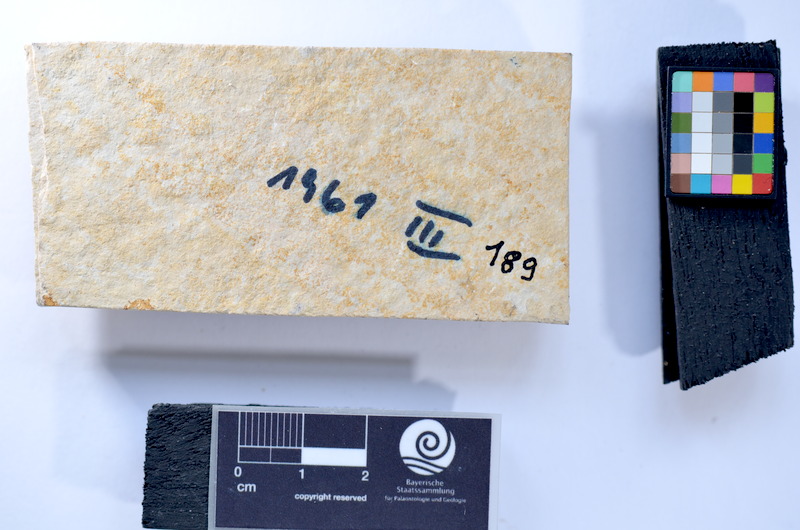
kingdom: Animalia
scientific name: Animalia
